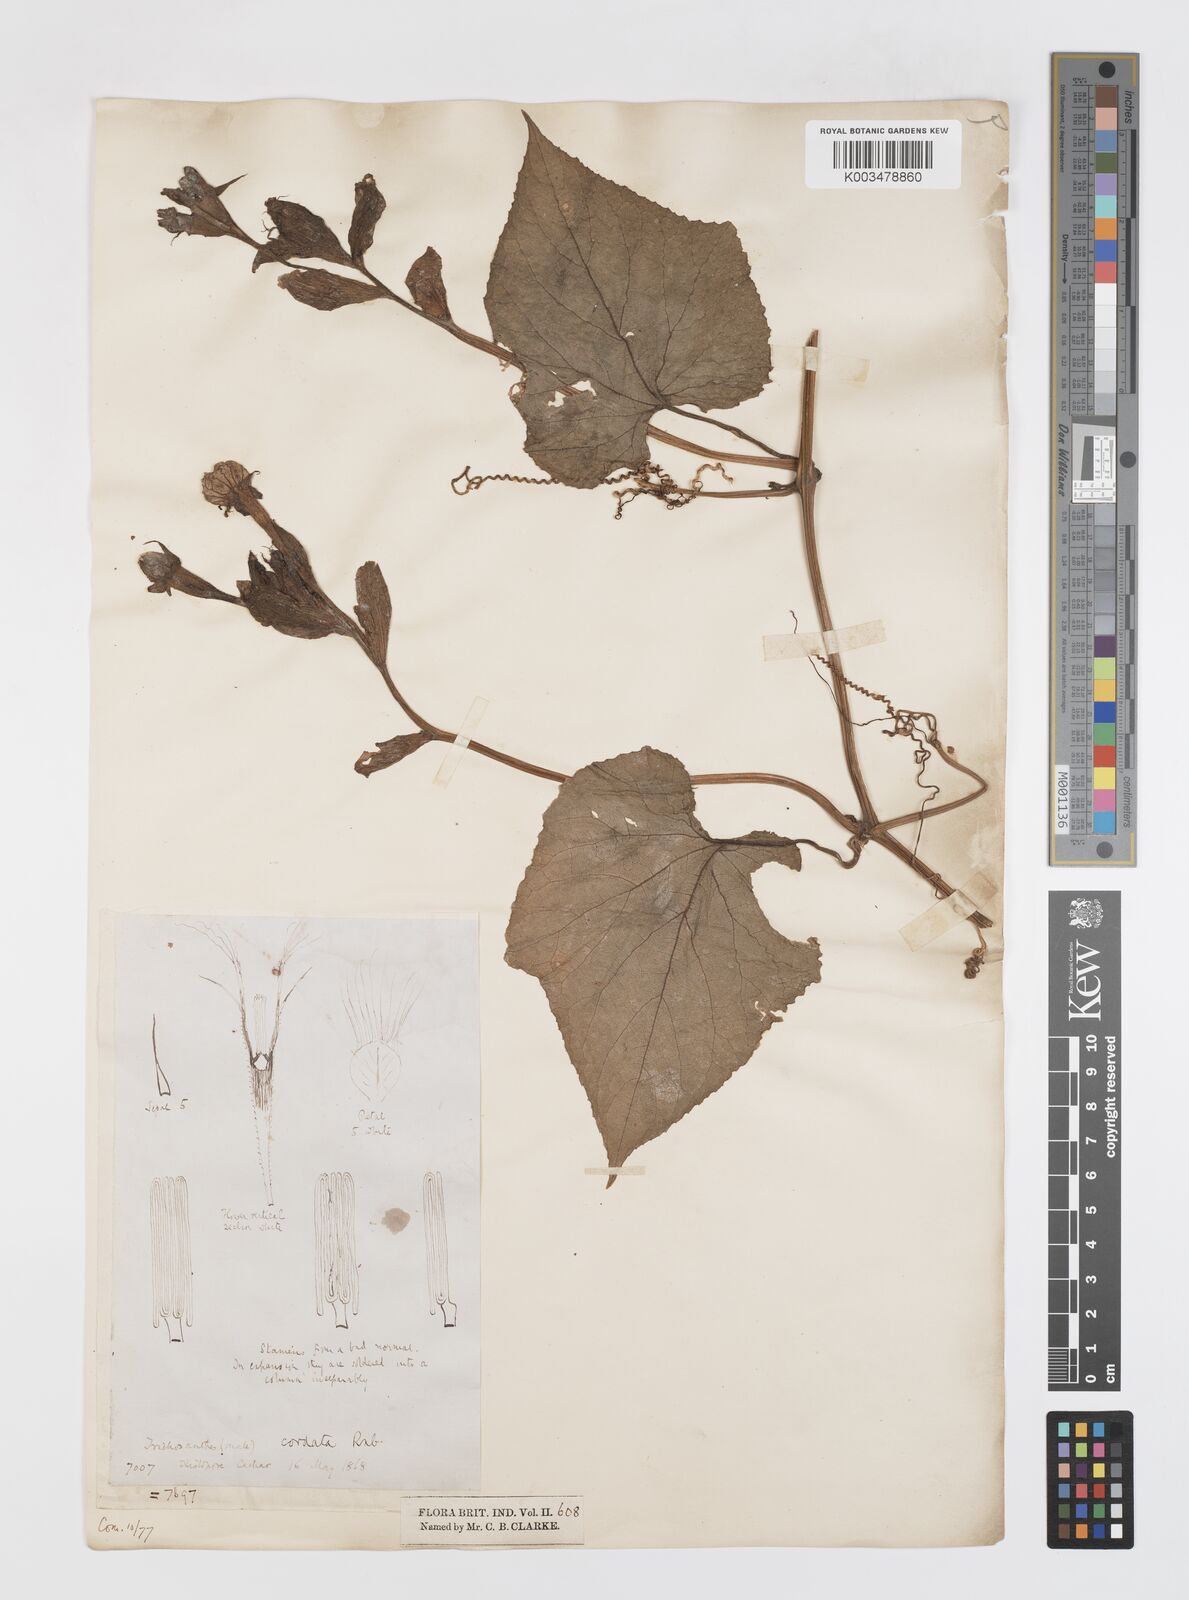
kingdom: Plantae
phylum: Tracheophyta
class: Magnoliopsida
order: Cucurbitales
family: Cucurbitaceae
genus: Trichosanthes
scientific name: Trichosanthes cordata
